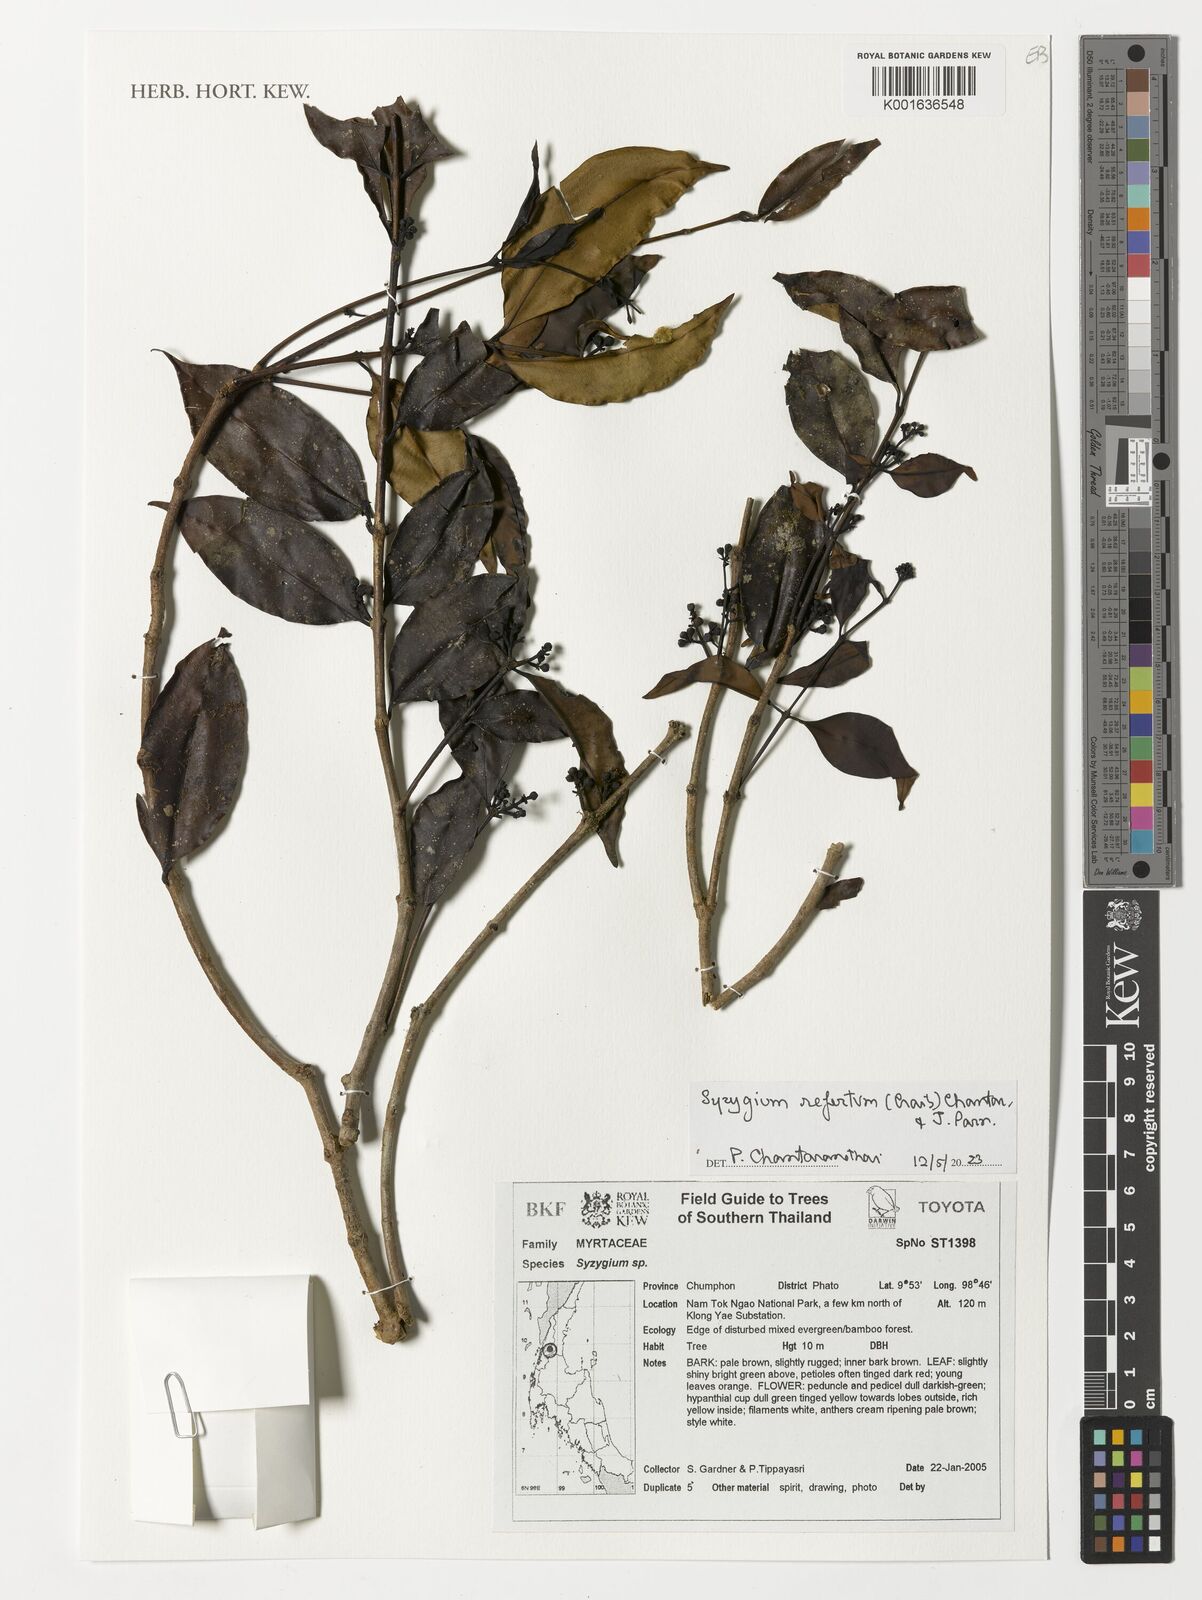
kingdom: Plantae
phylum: Tracheophyta
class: Magnoliopsida
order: Myrtales
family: Myrtaceae
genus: Syzygium
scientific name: Syzygium refertum
